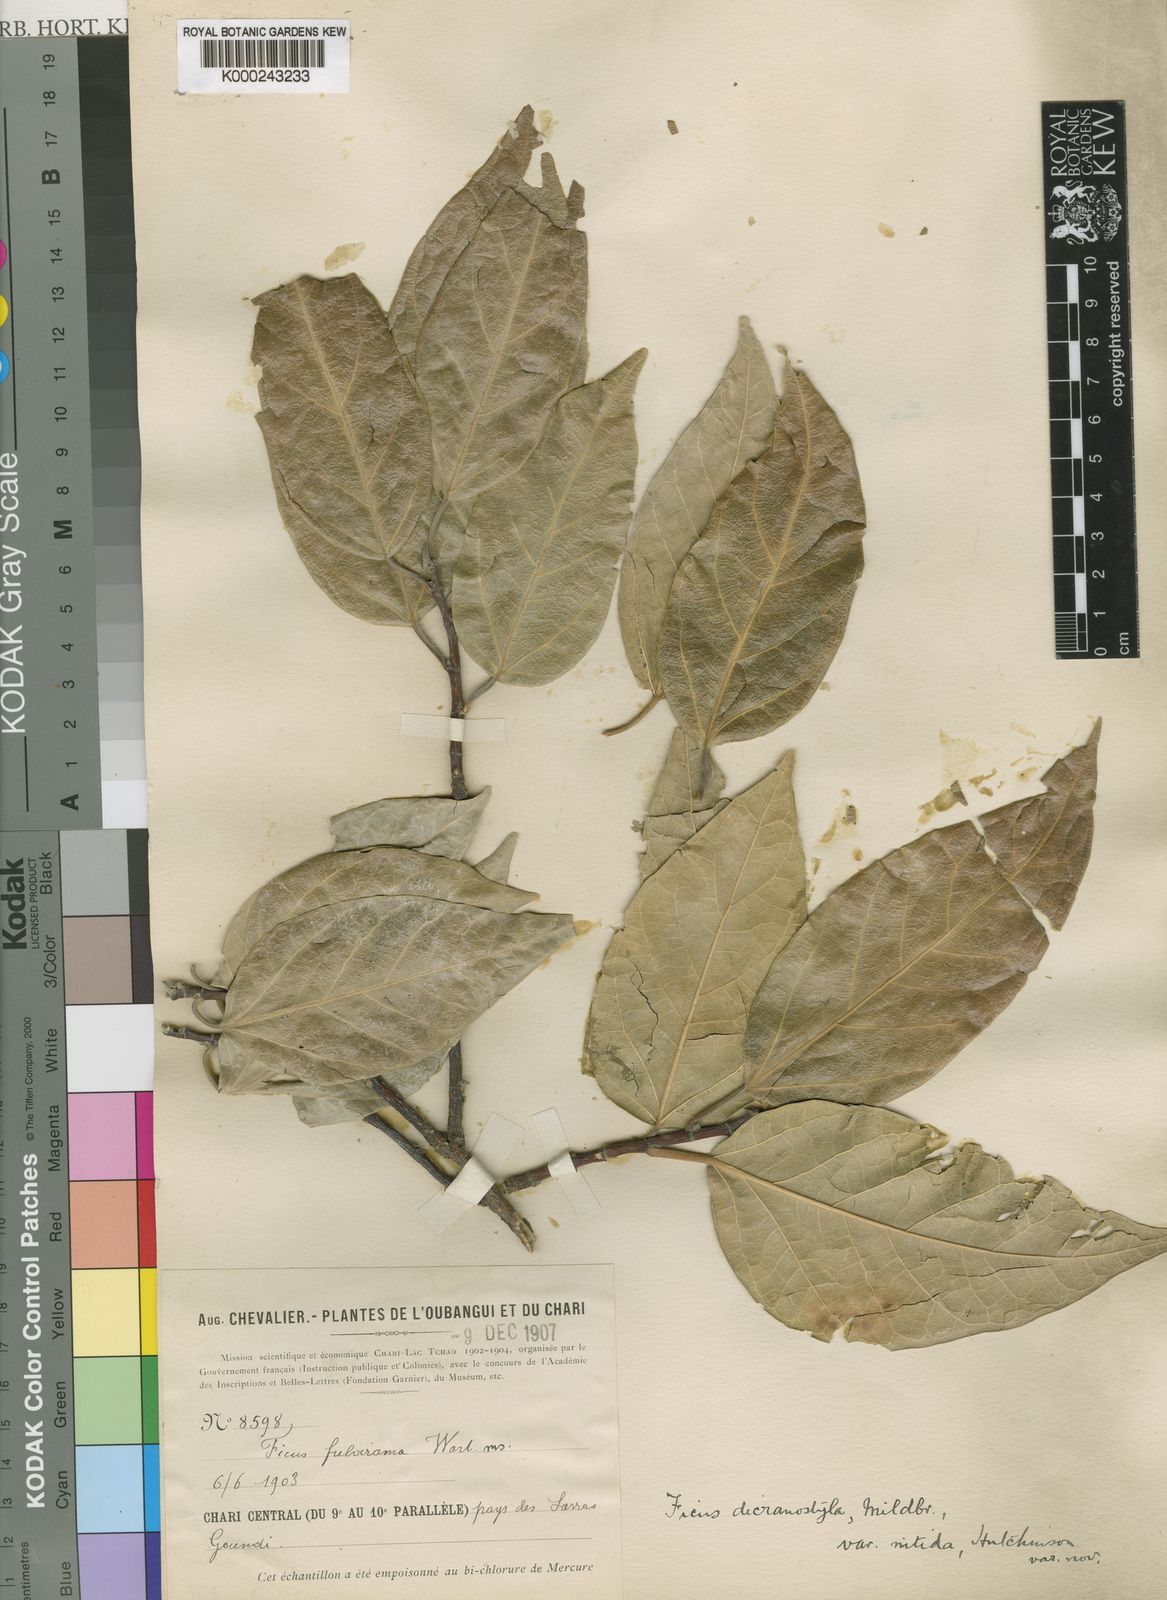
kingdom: Plantae
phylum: Tracheophyta
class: Magnoliopsida
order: Rosales
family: Moraceae
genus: Ficus
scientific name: Ficus dicranostyla
